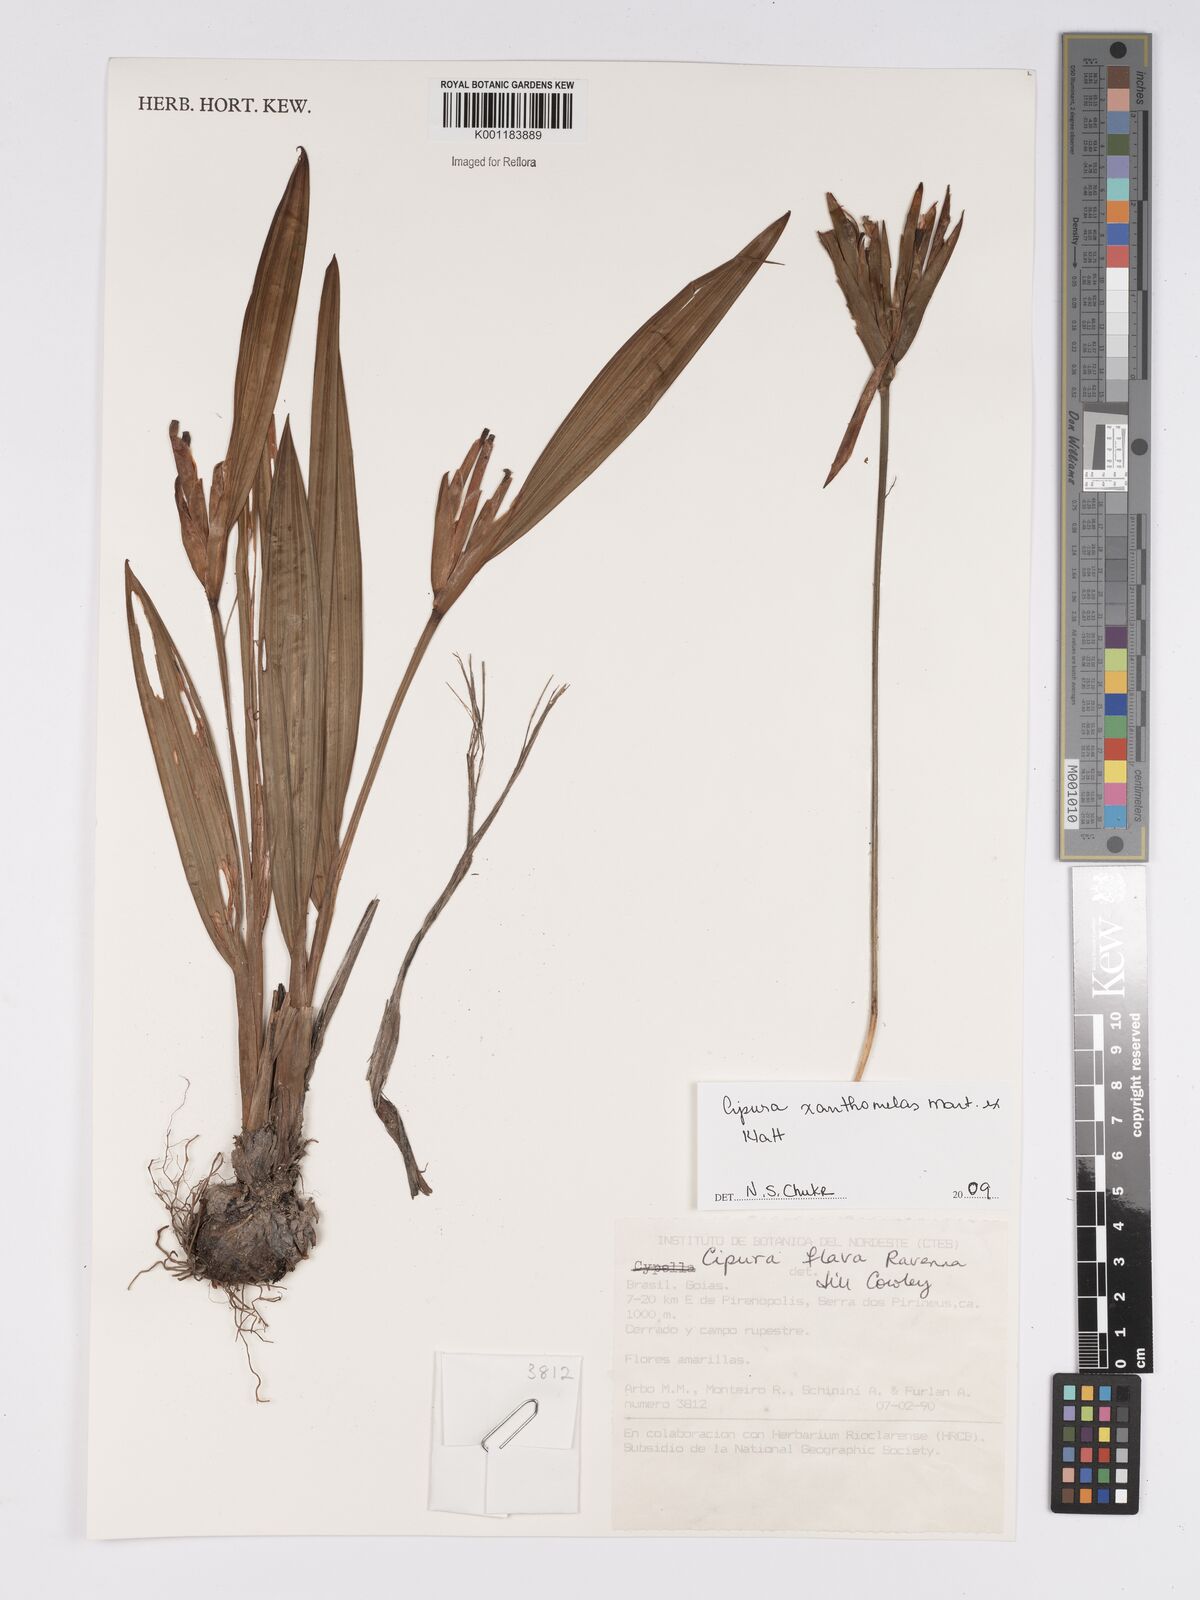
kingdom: Plantae
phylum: Tracheophyta
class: Liliopsida
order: Asparagales
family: Iridaceae
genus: Cipura
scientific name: Cipura xanthomelas
